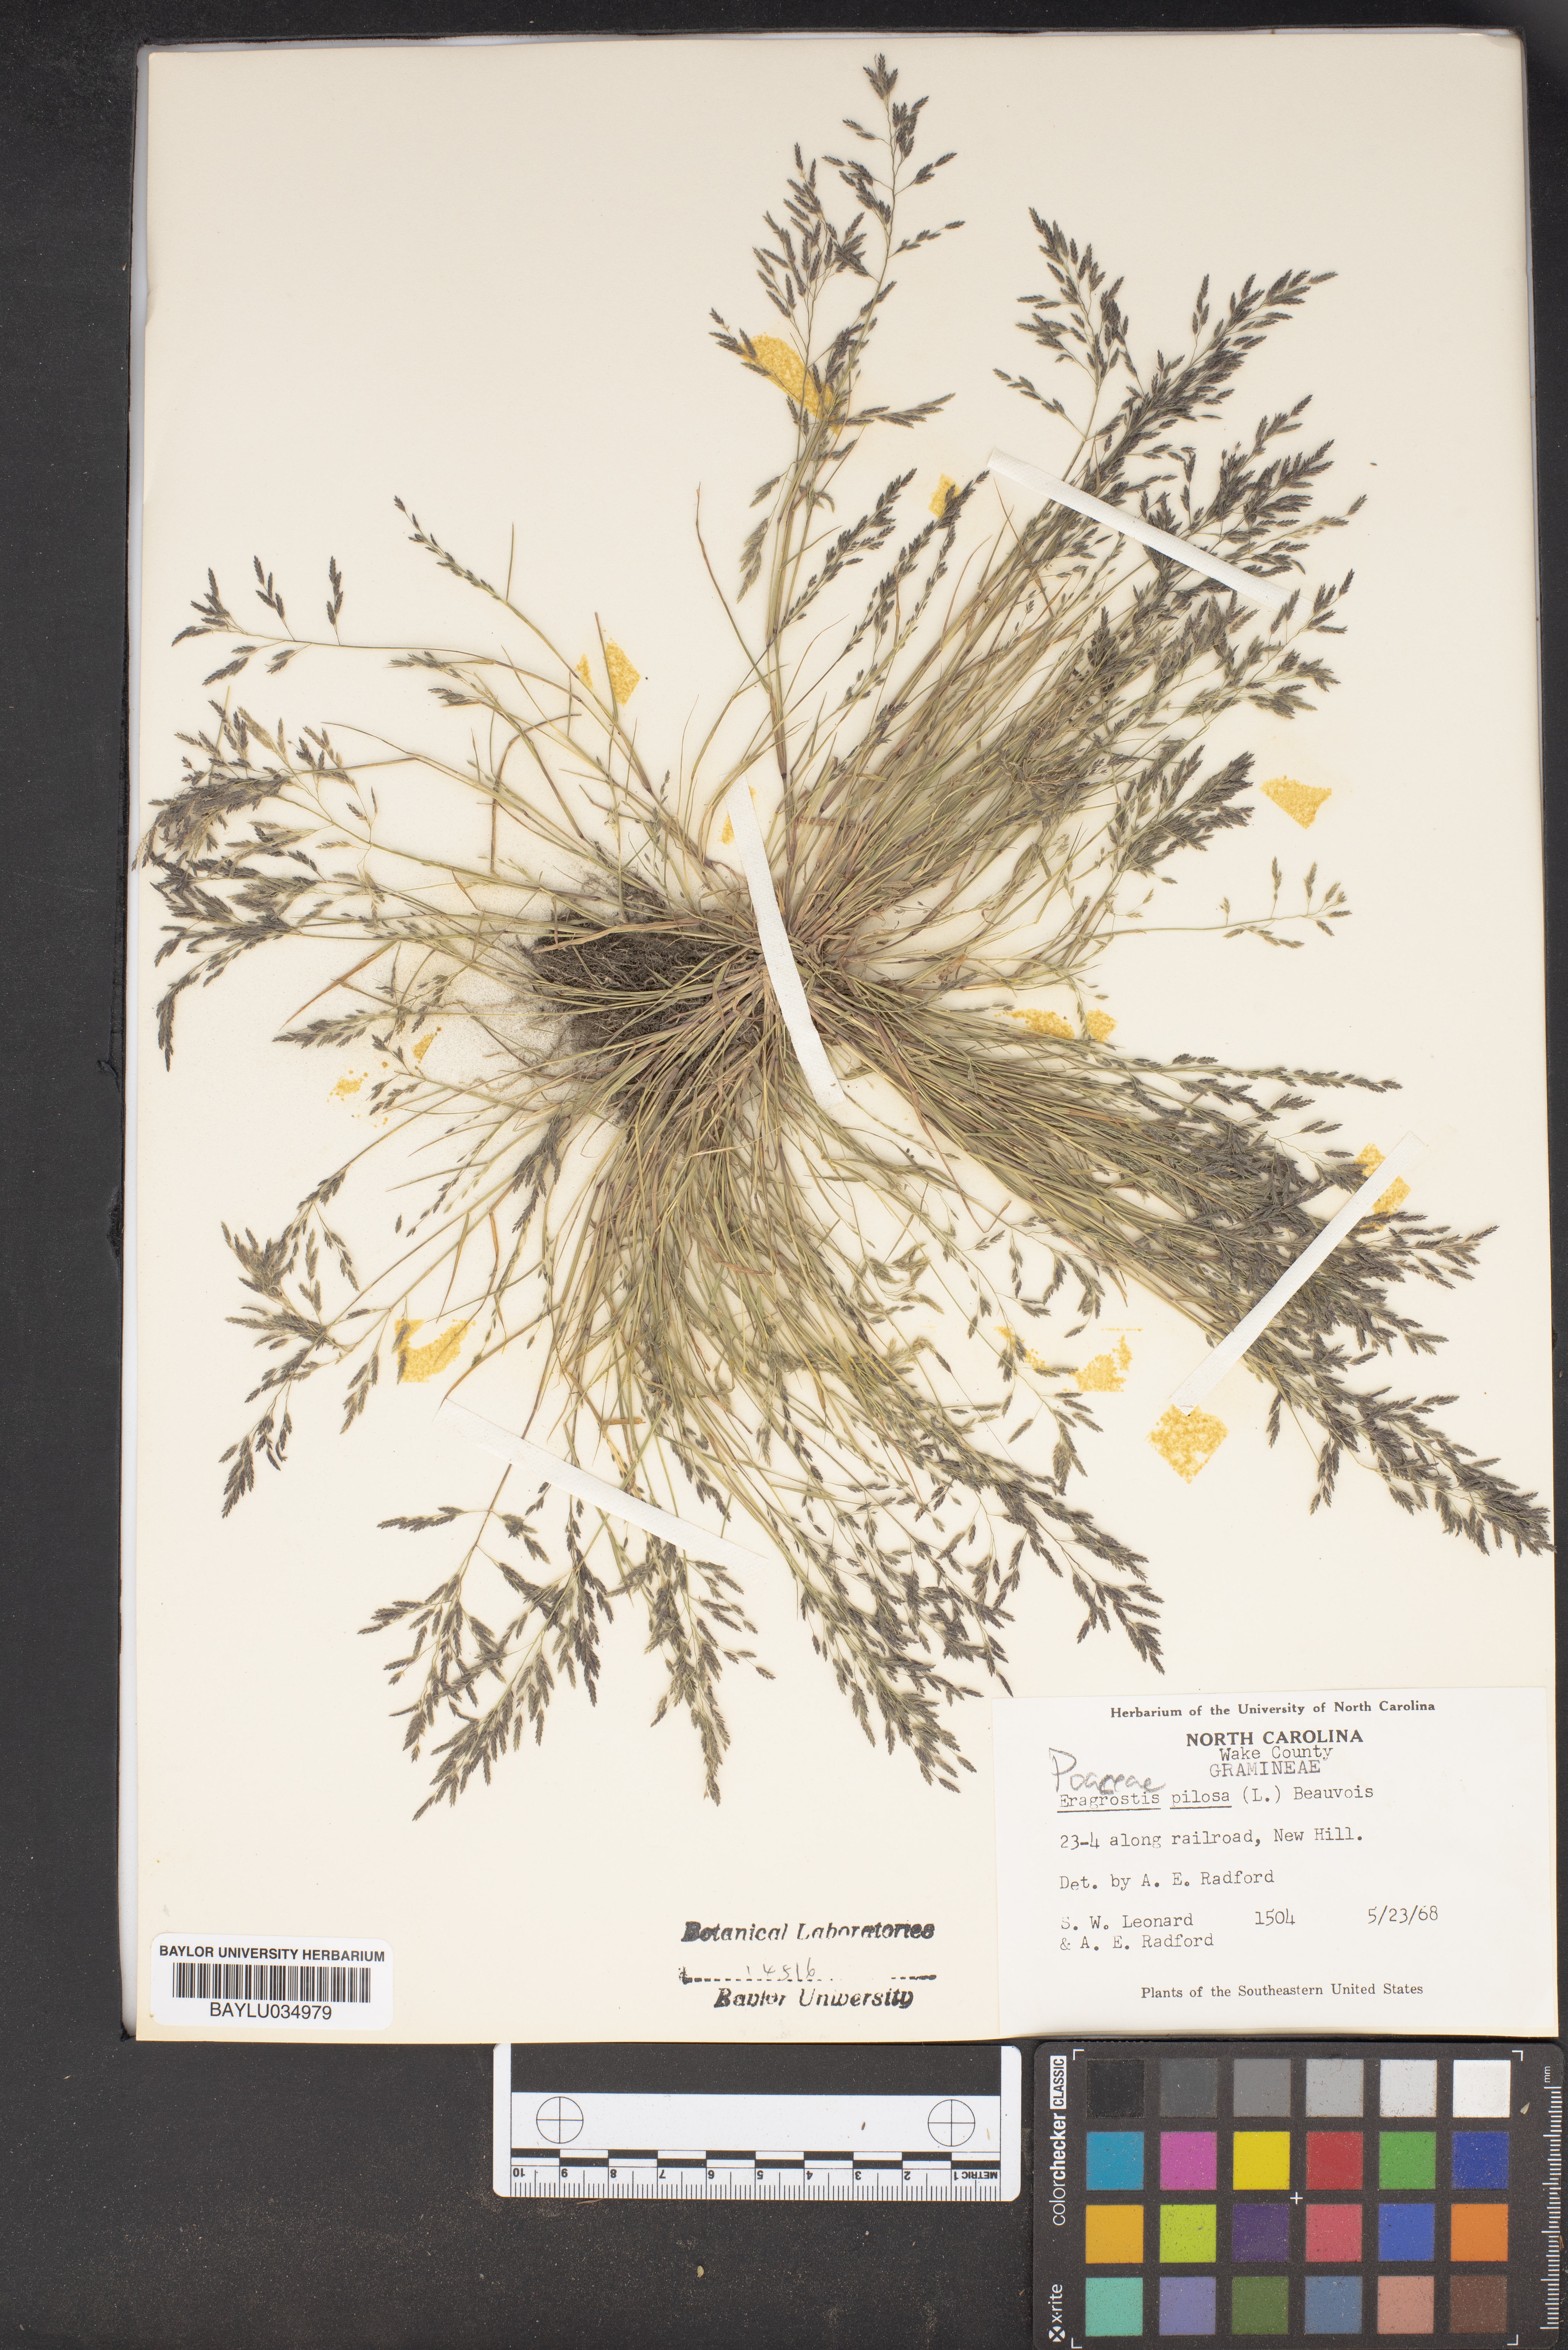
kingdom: Plantae
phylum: Tracheophyta
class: Liliopsida
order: Poales
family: Poaceae
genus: Eragrostis
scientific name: Eragrostis pilosa
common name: Indian lovegrass
